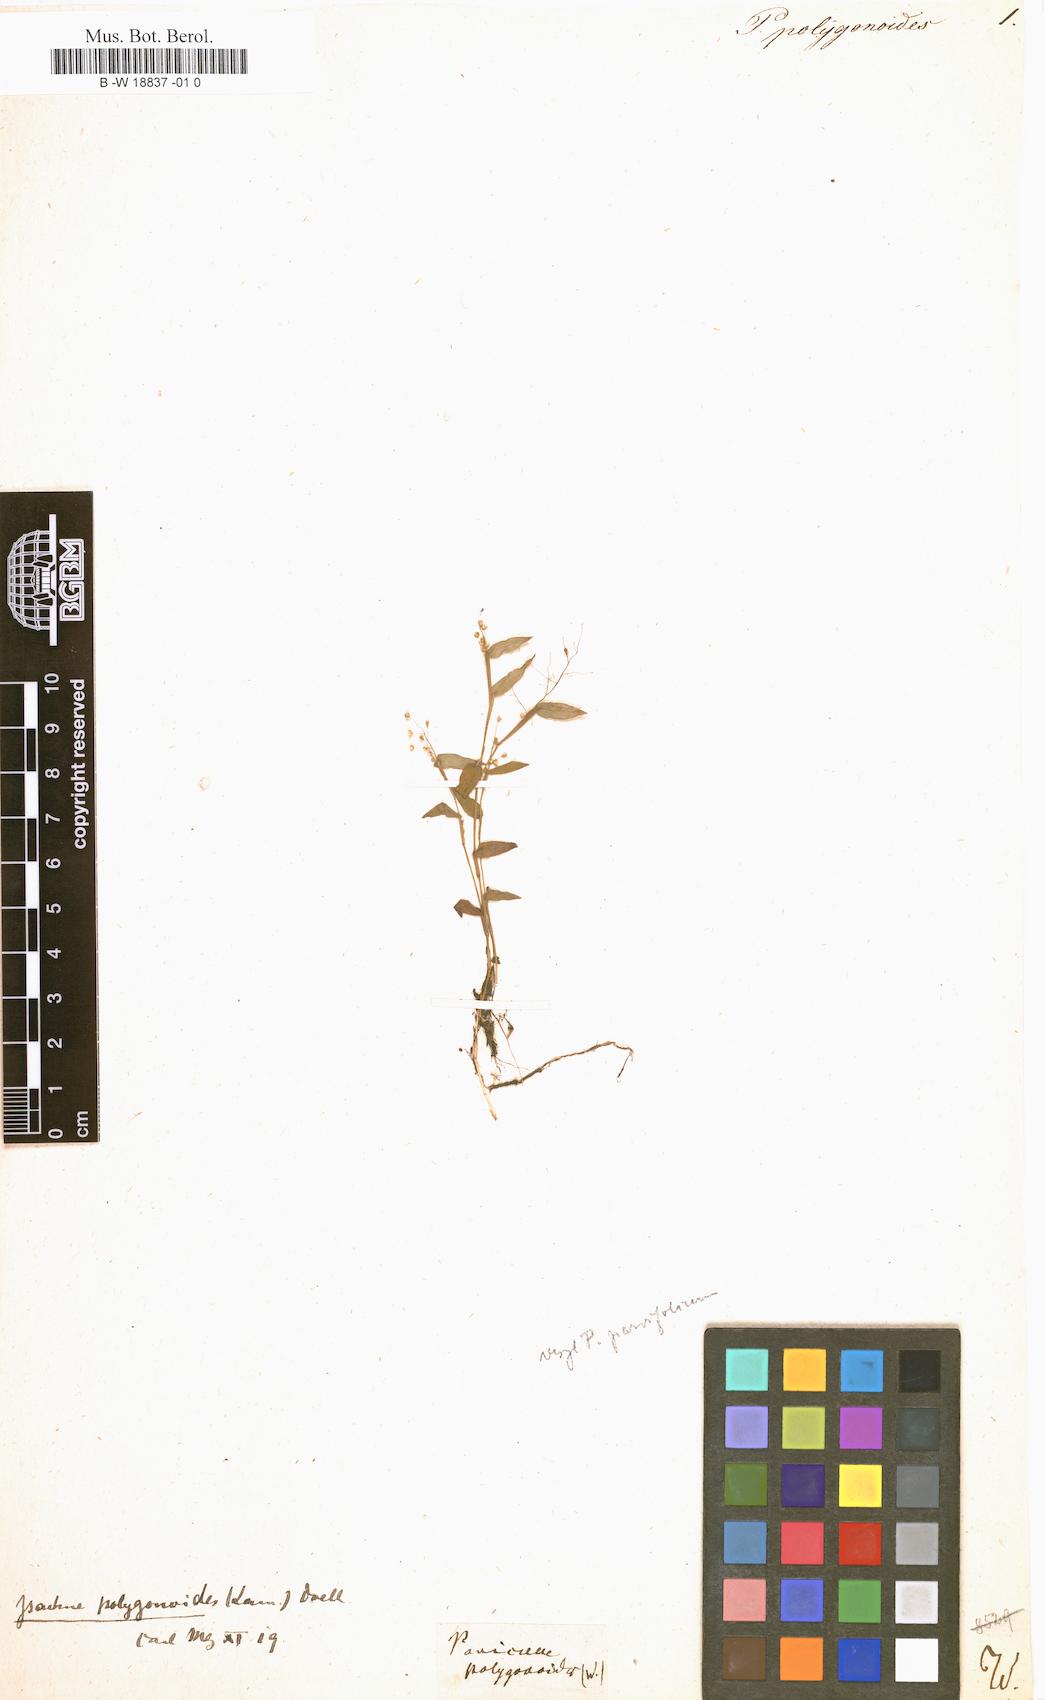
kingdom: Plantae
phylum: Tracheophyta
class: Liliopsida
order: Poales
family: Poaceae
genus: Isachne
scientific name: Isachne polygonoides
